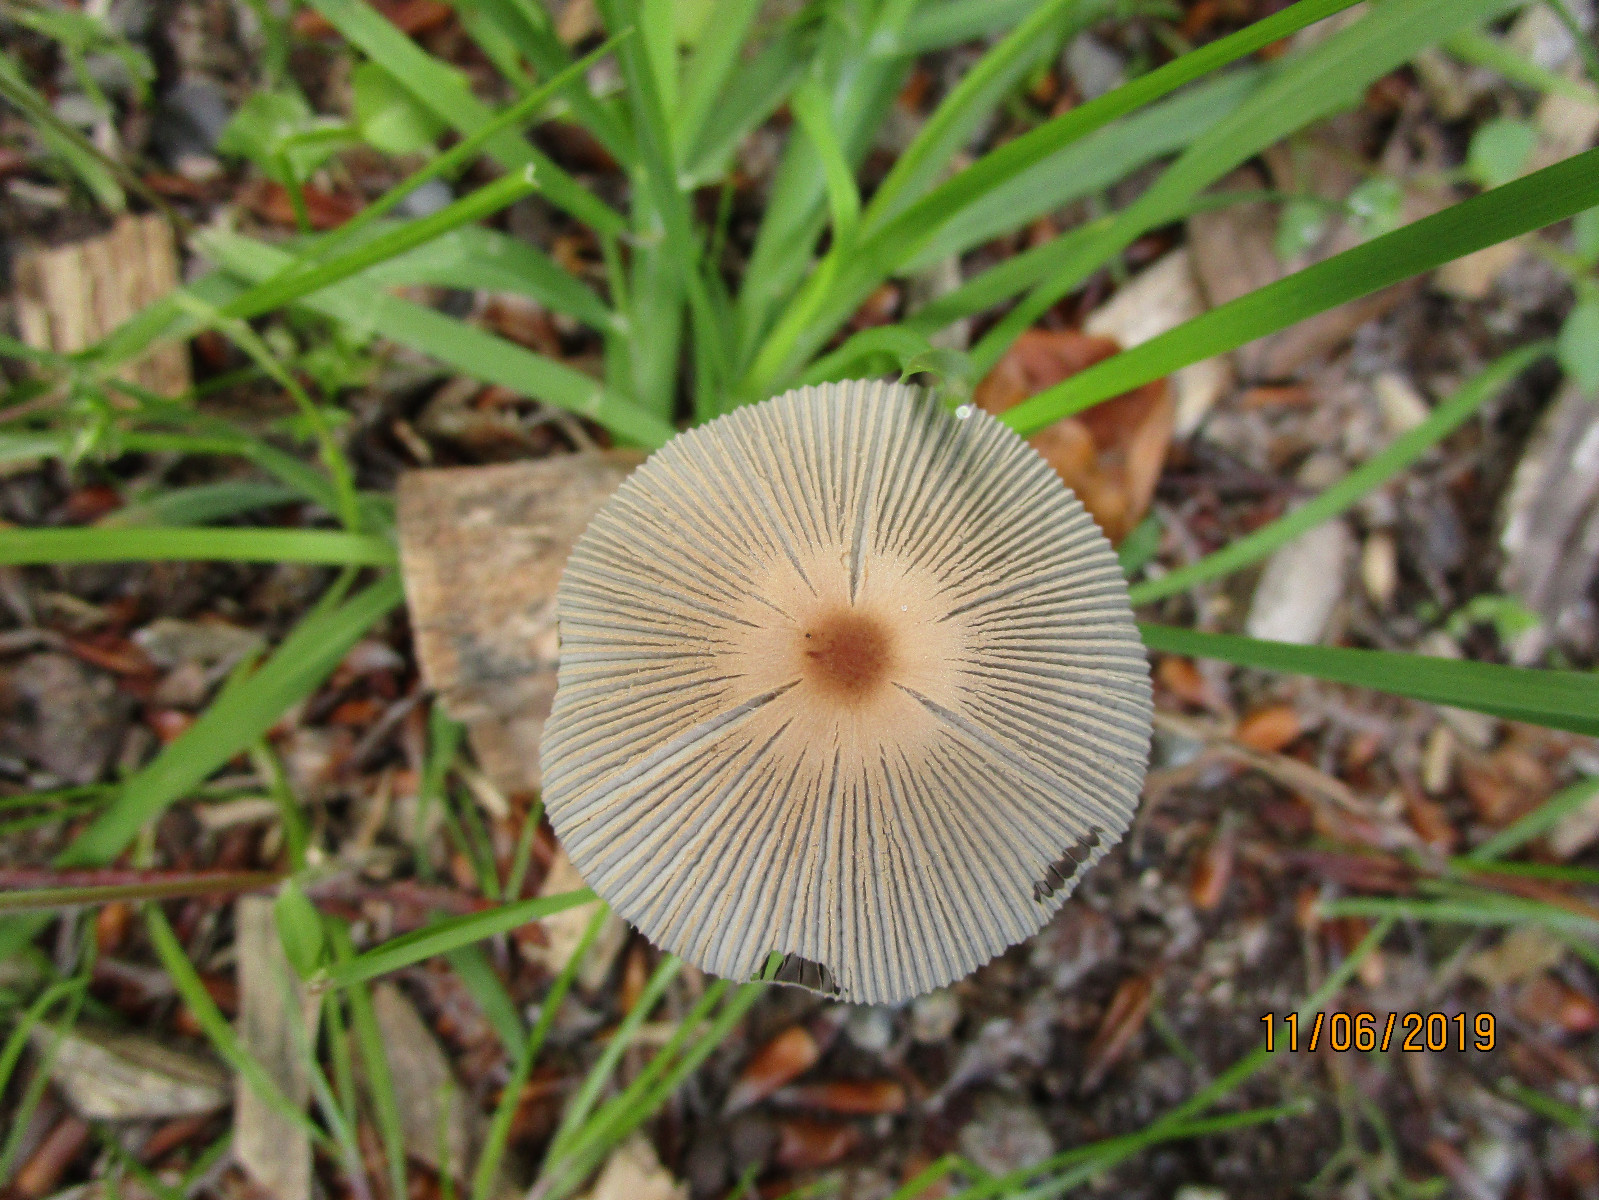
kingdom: Fungi
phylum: Basidiomycota
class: Agaricomycetes
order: Agaricales
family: Psathyrellaceae
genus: Parasola
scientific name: Parasola
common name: hjulhat
